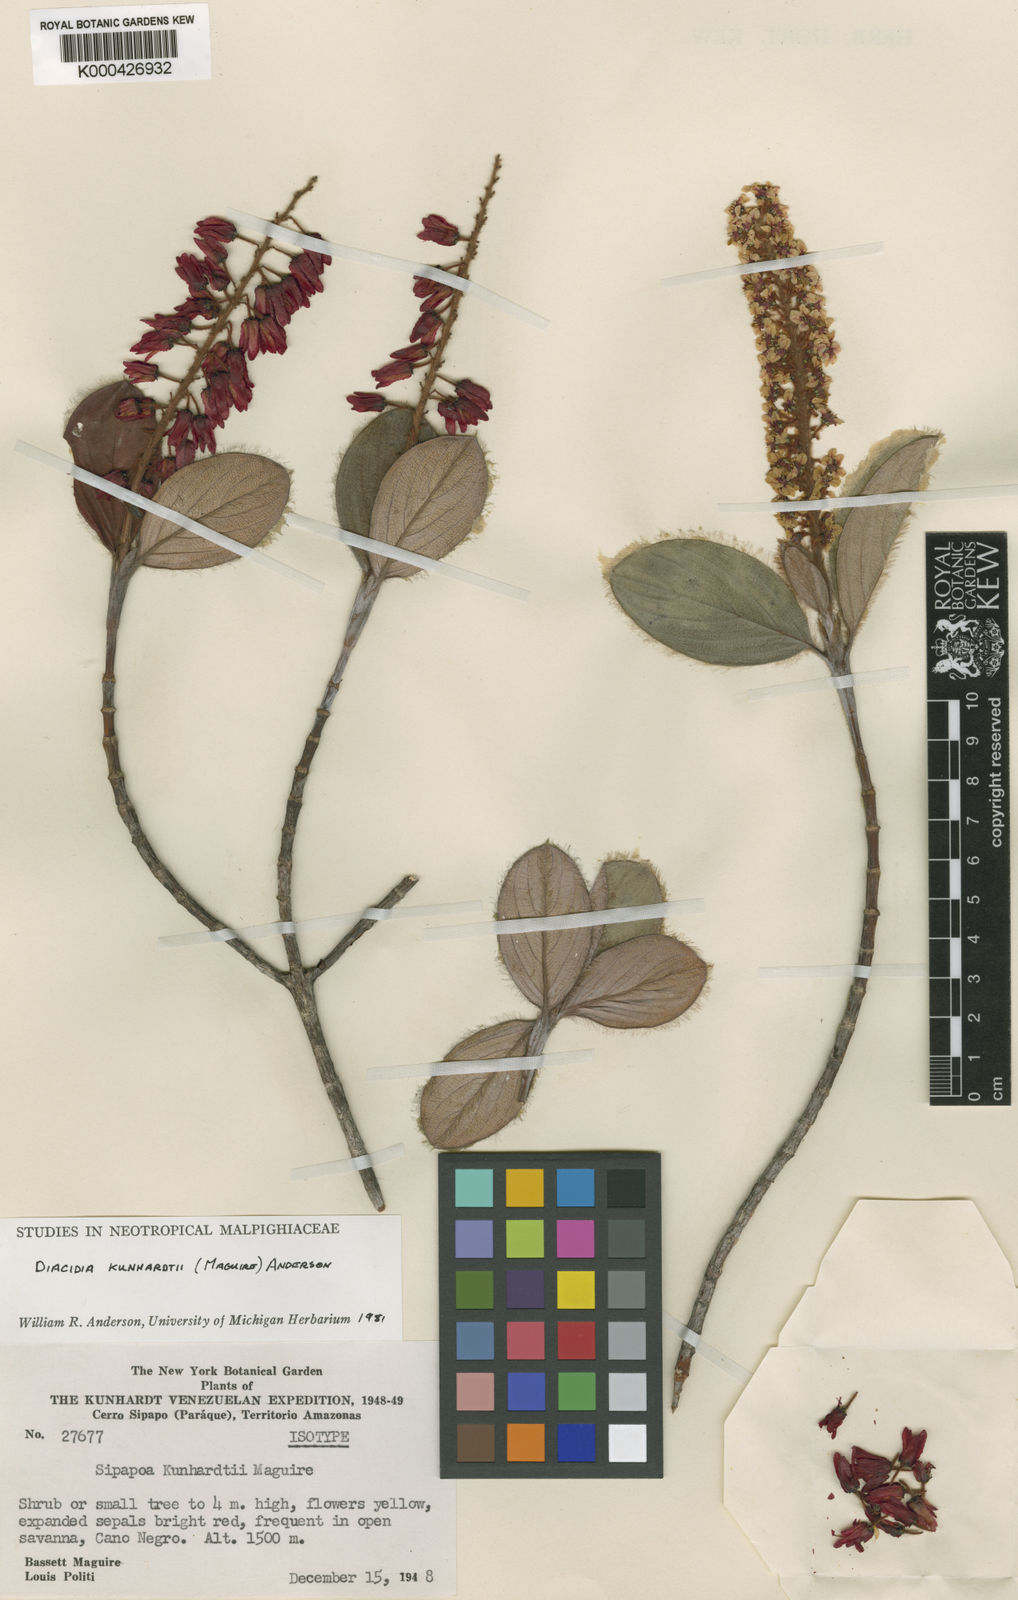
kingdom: Plantae
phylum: Tracheophyta
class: Magnoliopsida
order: Malpighiales
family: Malpighiaceae
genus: Diacidia
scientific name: Diacidia kunhardtii
